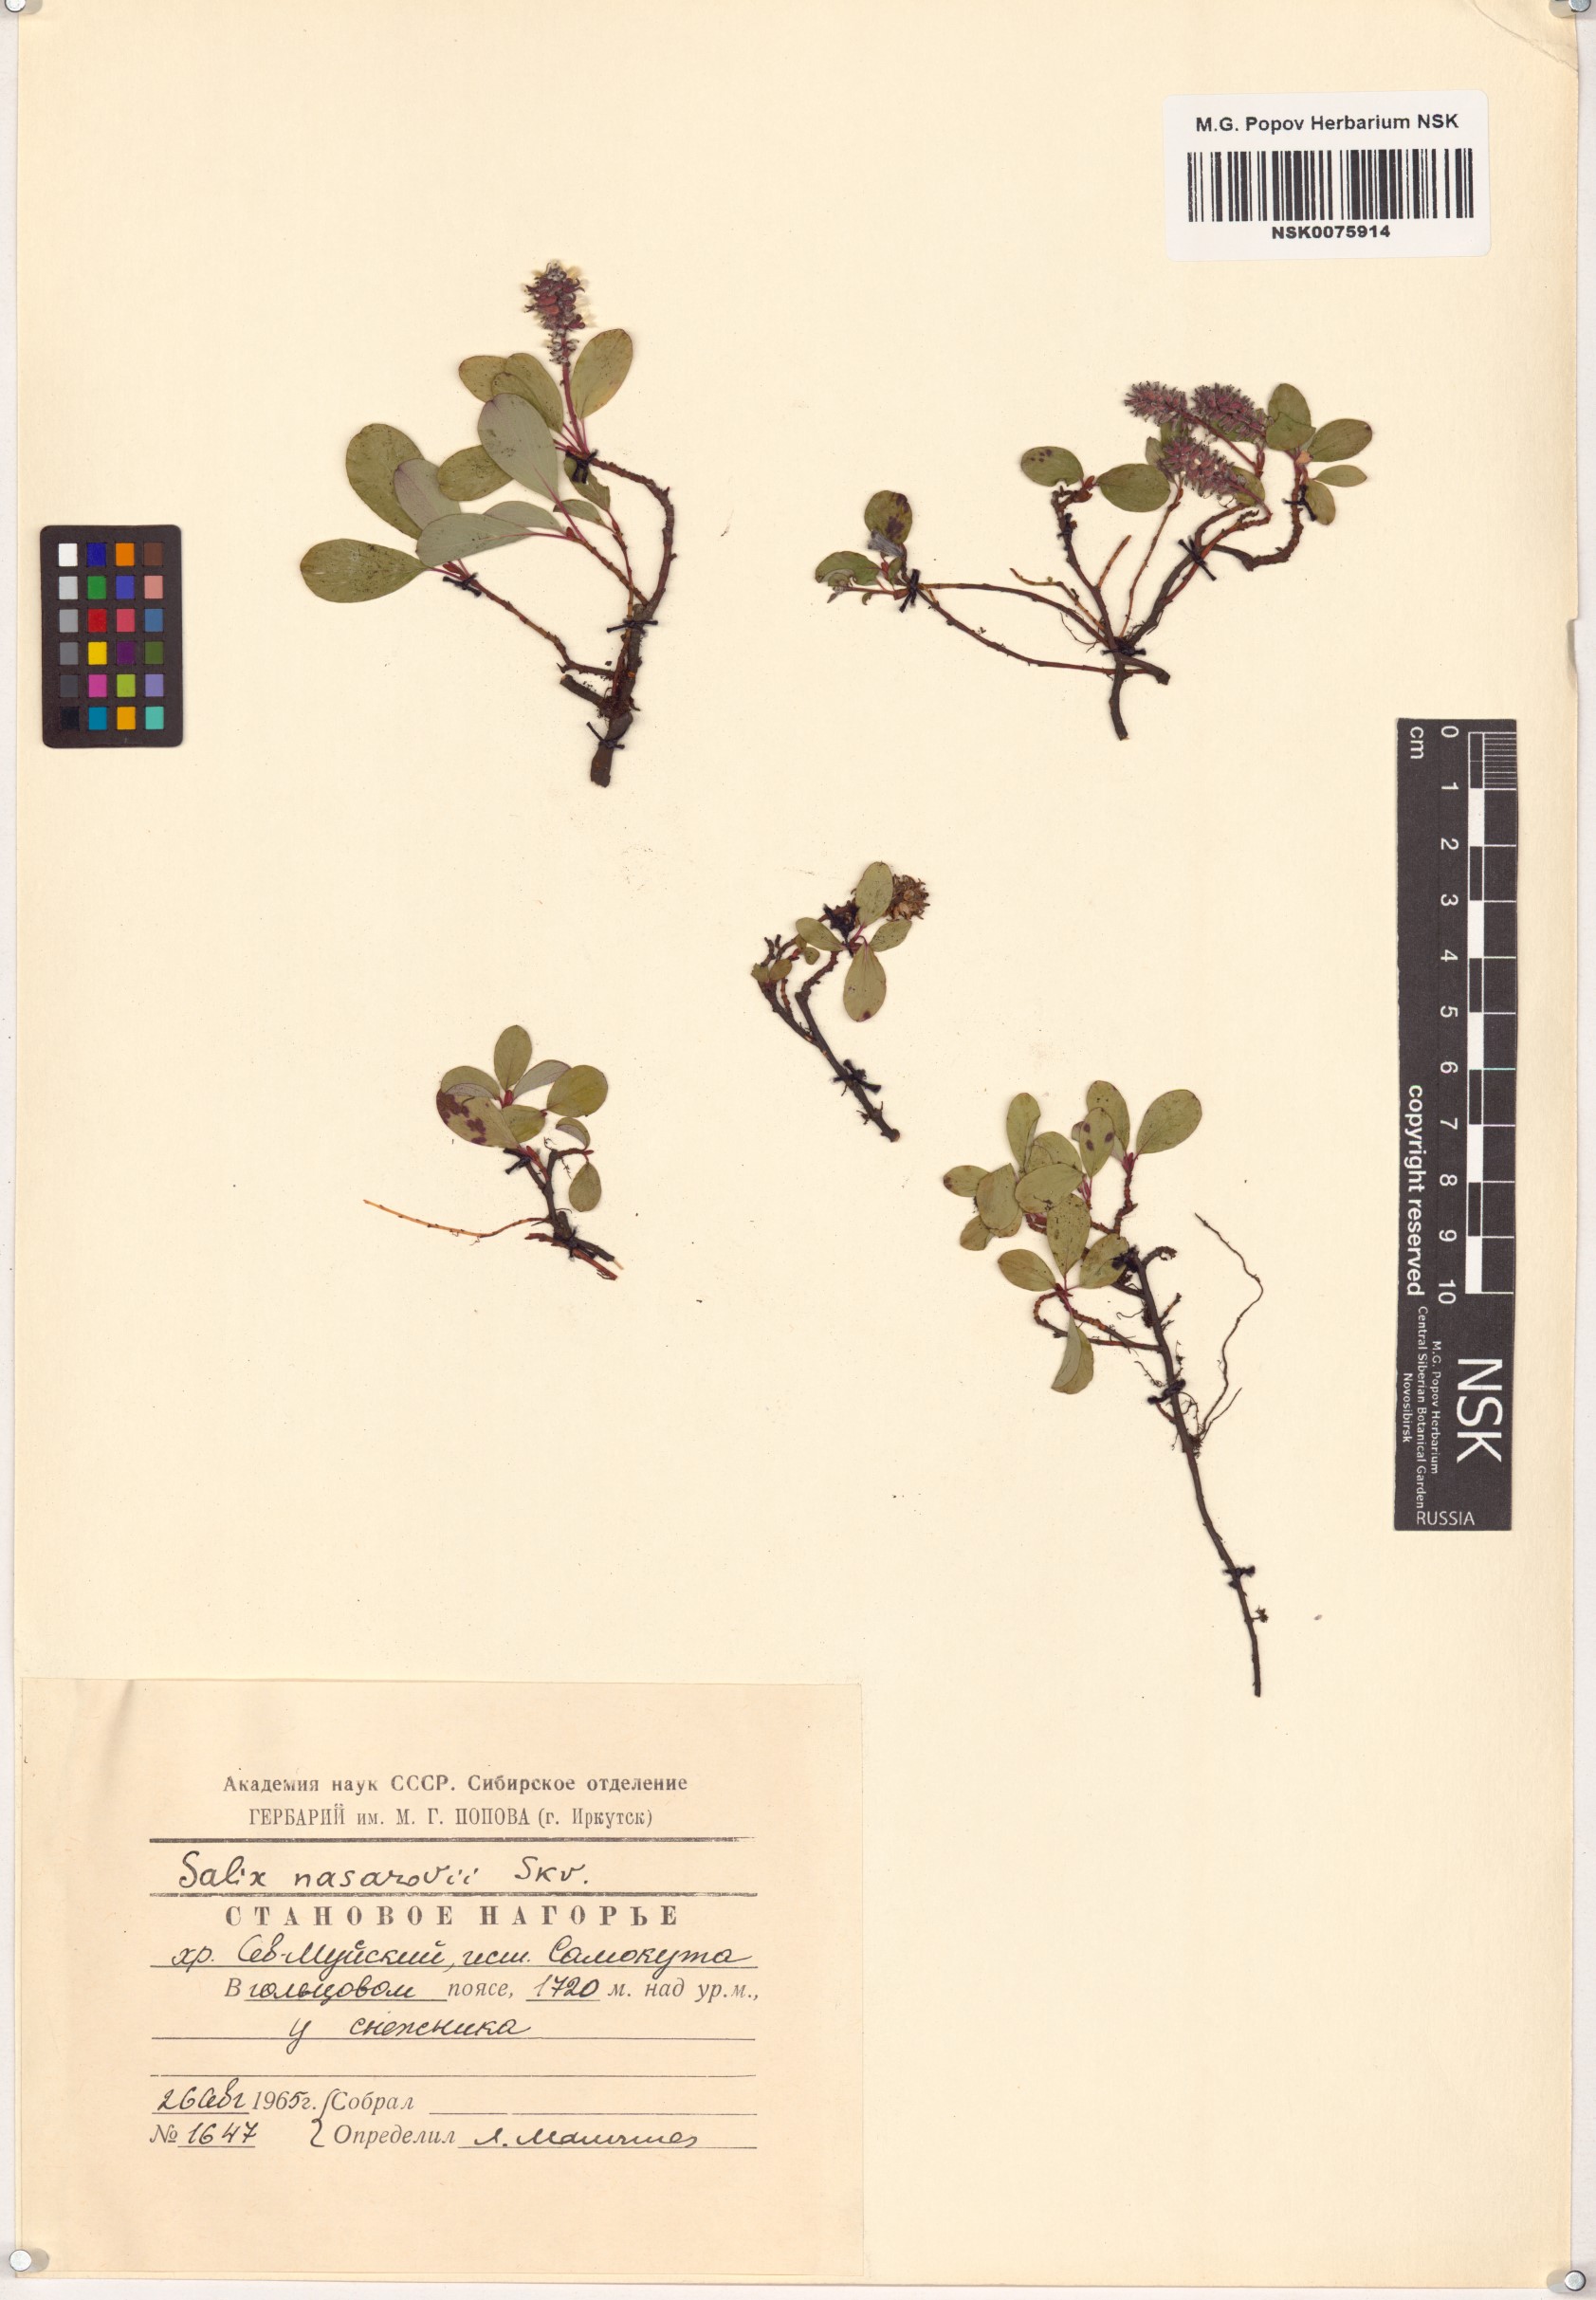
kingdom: Plantae
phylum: Tracheophyta
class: Magnoliopsida
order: Malpighiales
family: Salicaceae
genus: Salix
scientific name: Salix nasarovii
